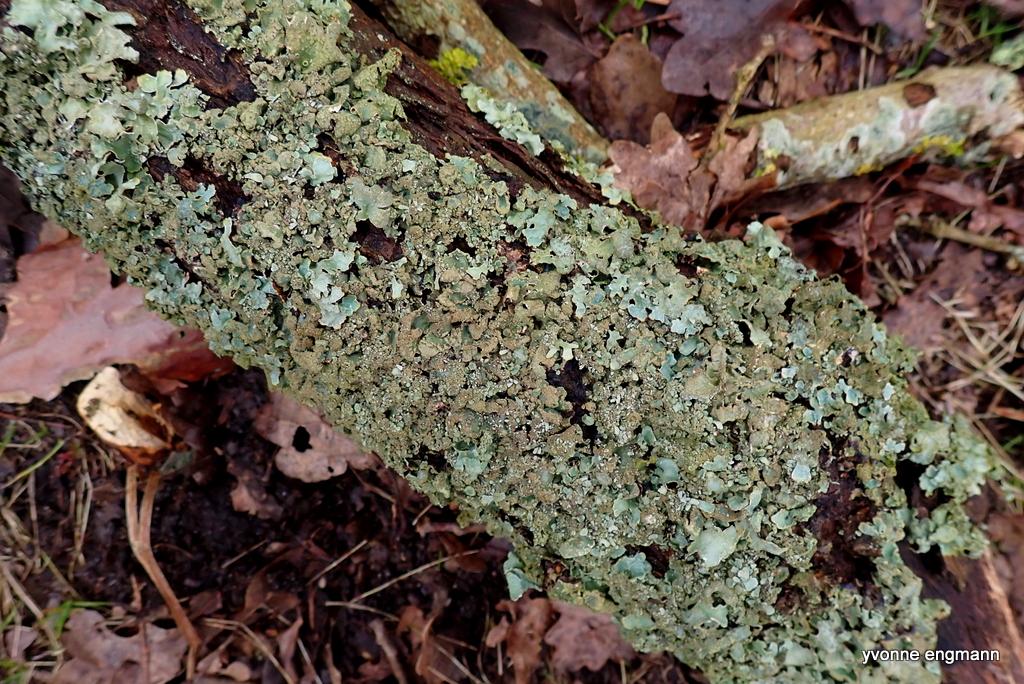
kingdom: Fungi
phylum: Ascomycota
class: Lecanoromycetes
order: Lecanorales
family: Parmeliaceae
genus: Parmelia
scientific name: Parmelia sulcata
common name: rynket skållav
